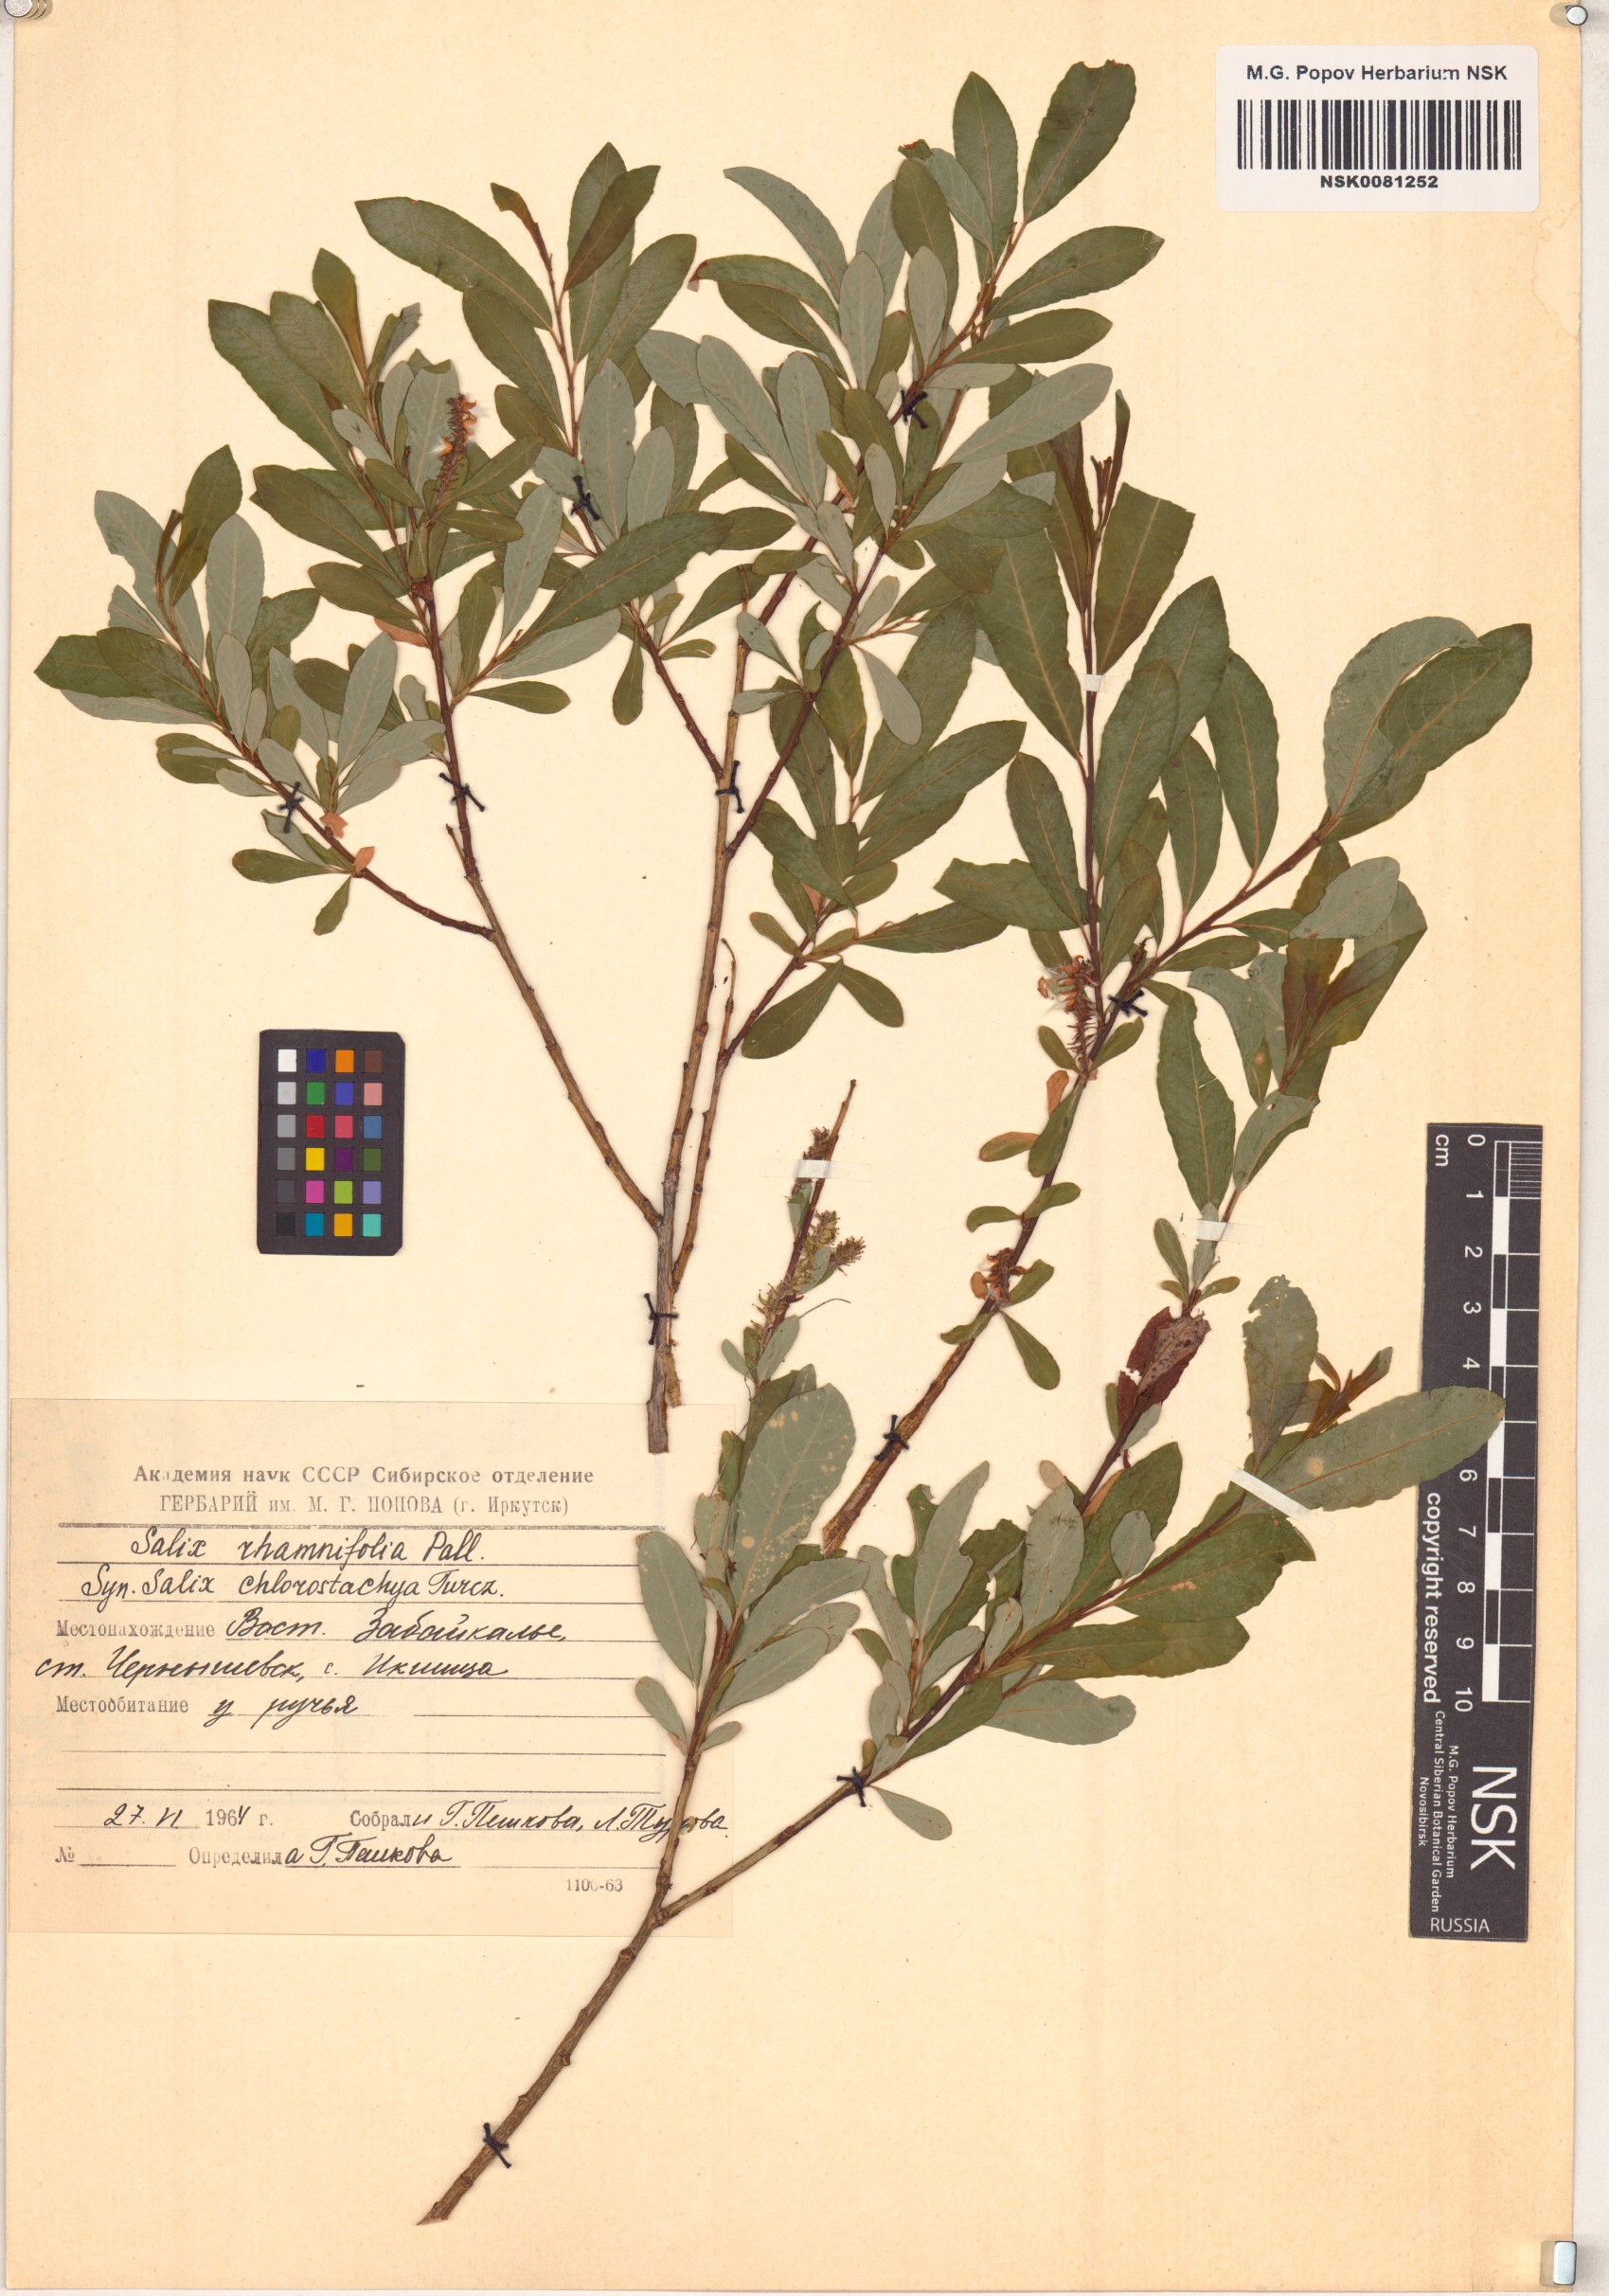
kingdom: Plantae
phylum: Tracheophyta
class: Magnoliopsida
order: Malpighiales
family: Salicaceae
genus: Salix
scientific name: Salix rhamnifolia
